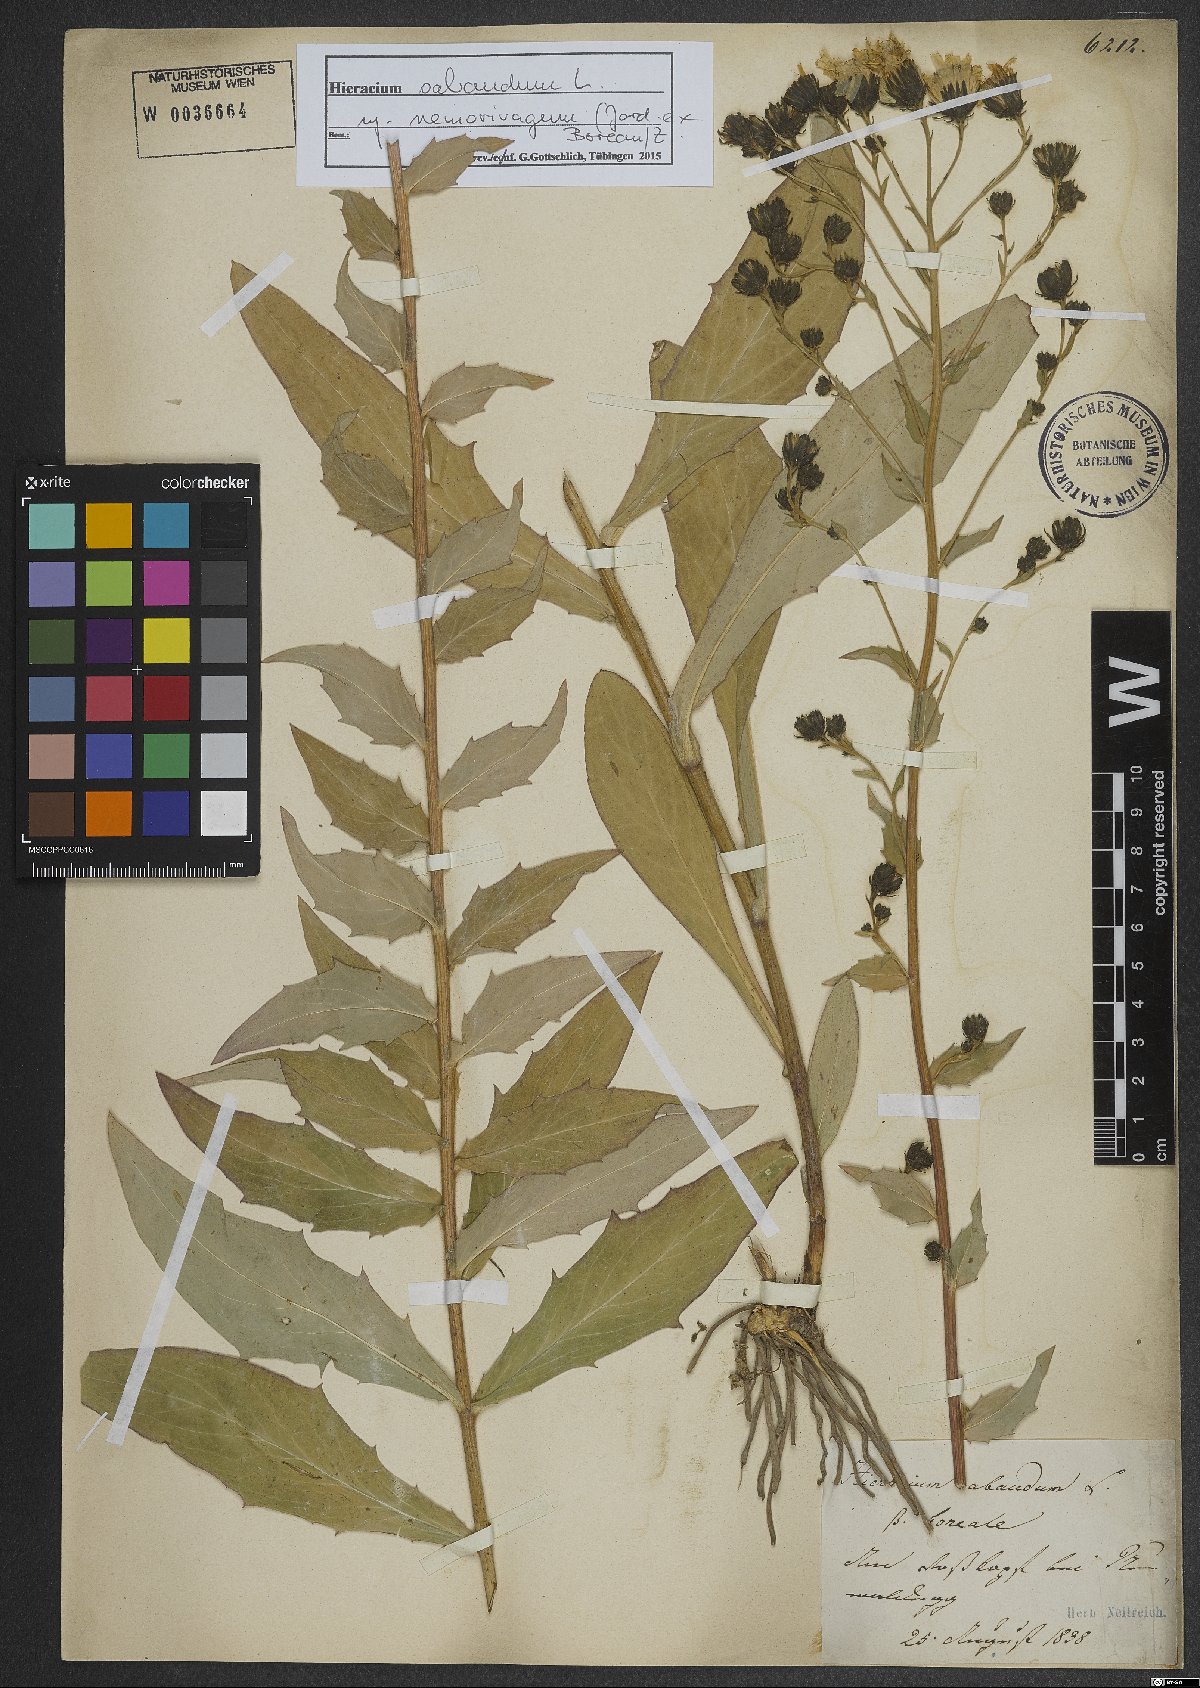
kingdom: Plantae
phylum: Tracheophyta
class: Magnoliopsida
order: Asterales
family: Asteraceae
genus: Hieracium
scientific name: Hieracium sabaudum
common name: New england hawkweed
